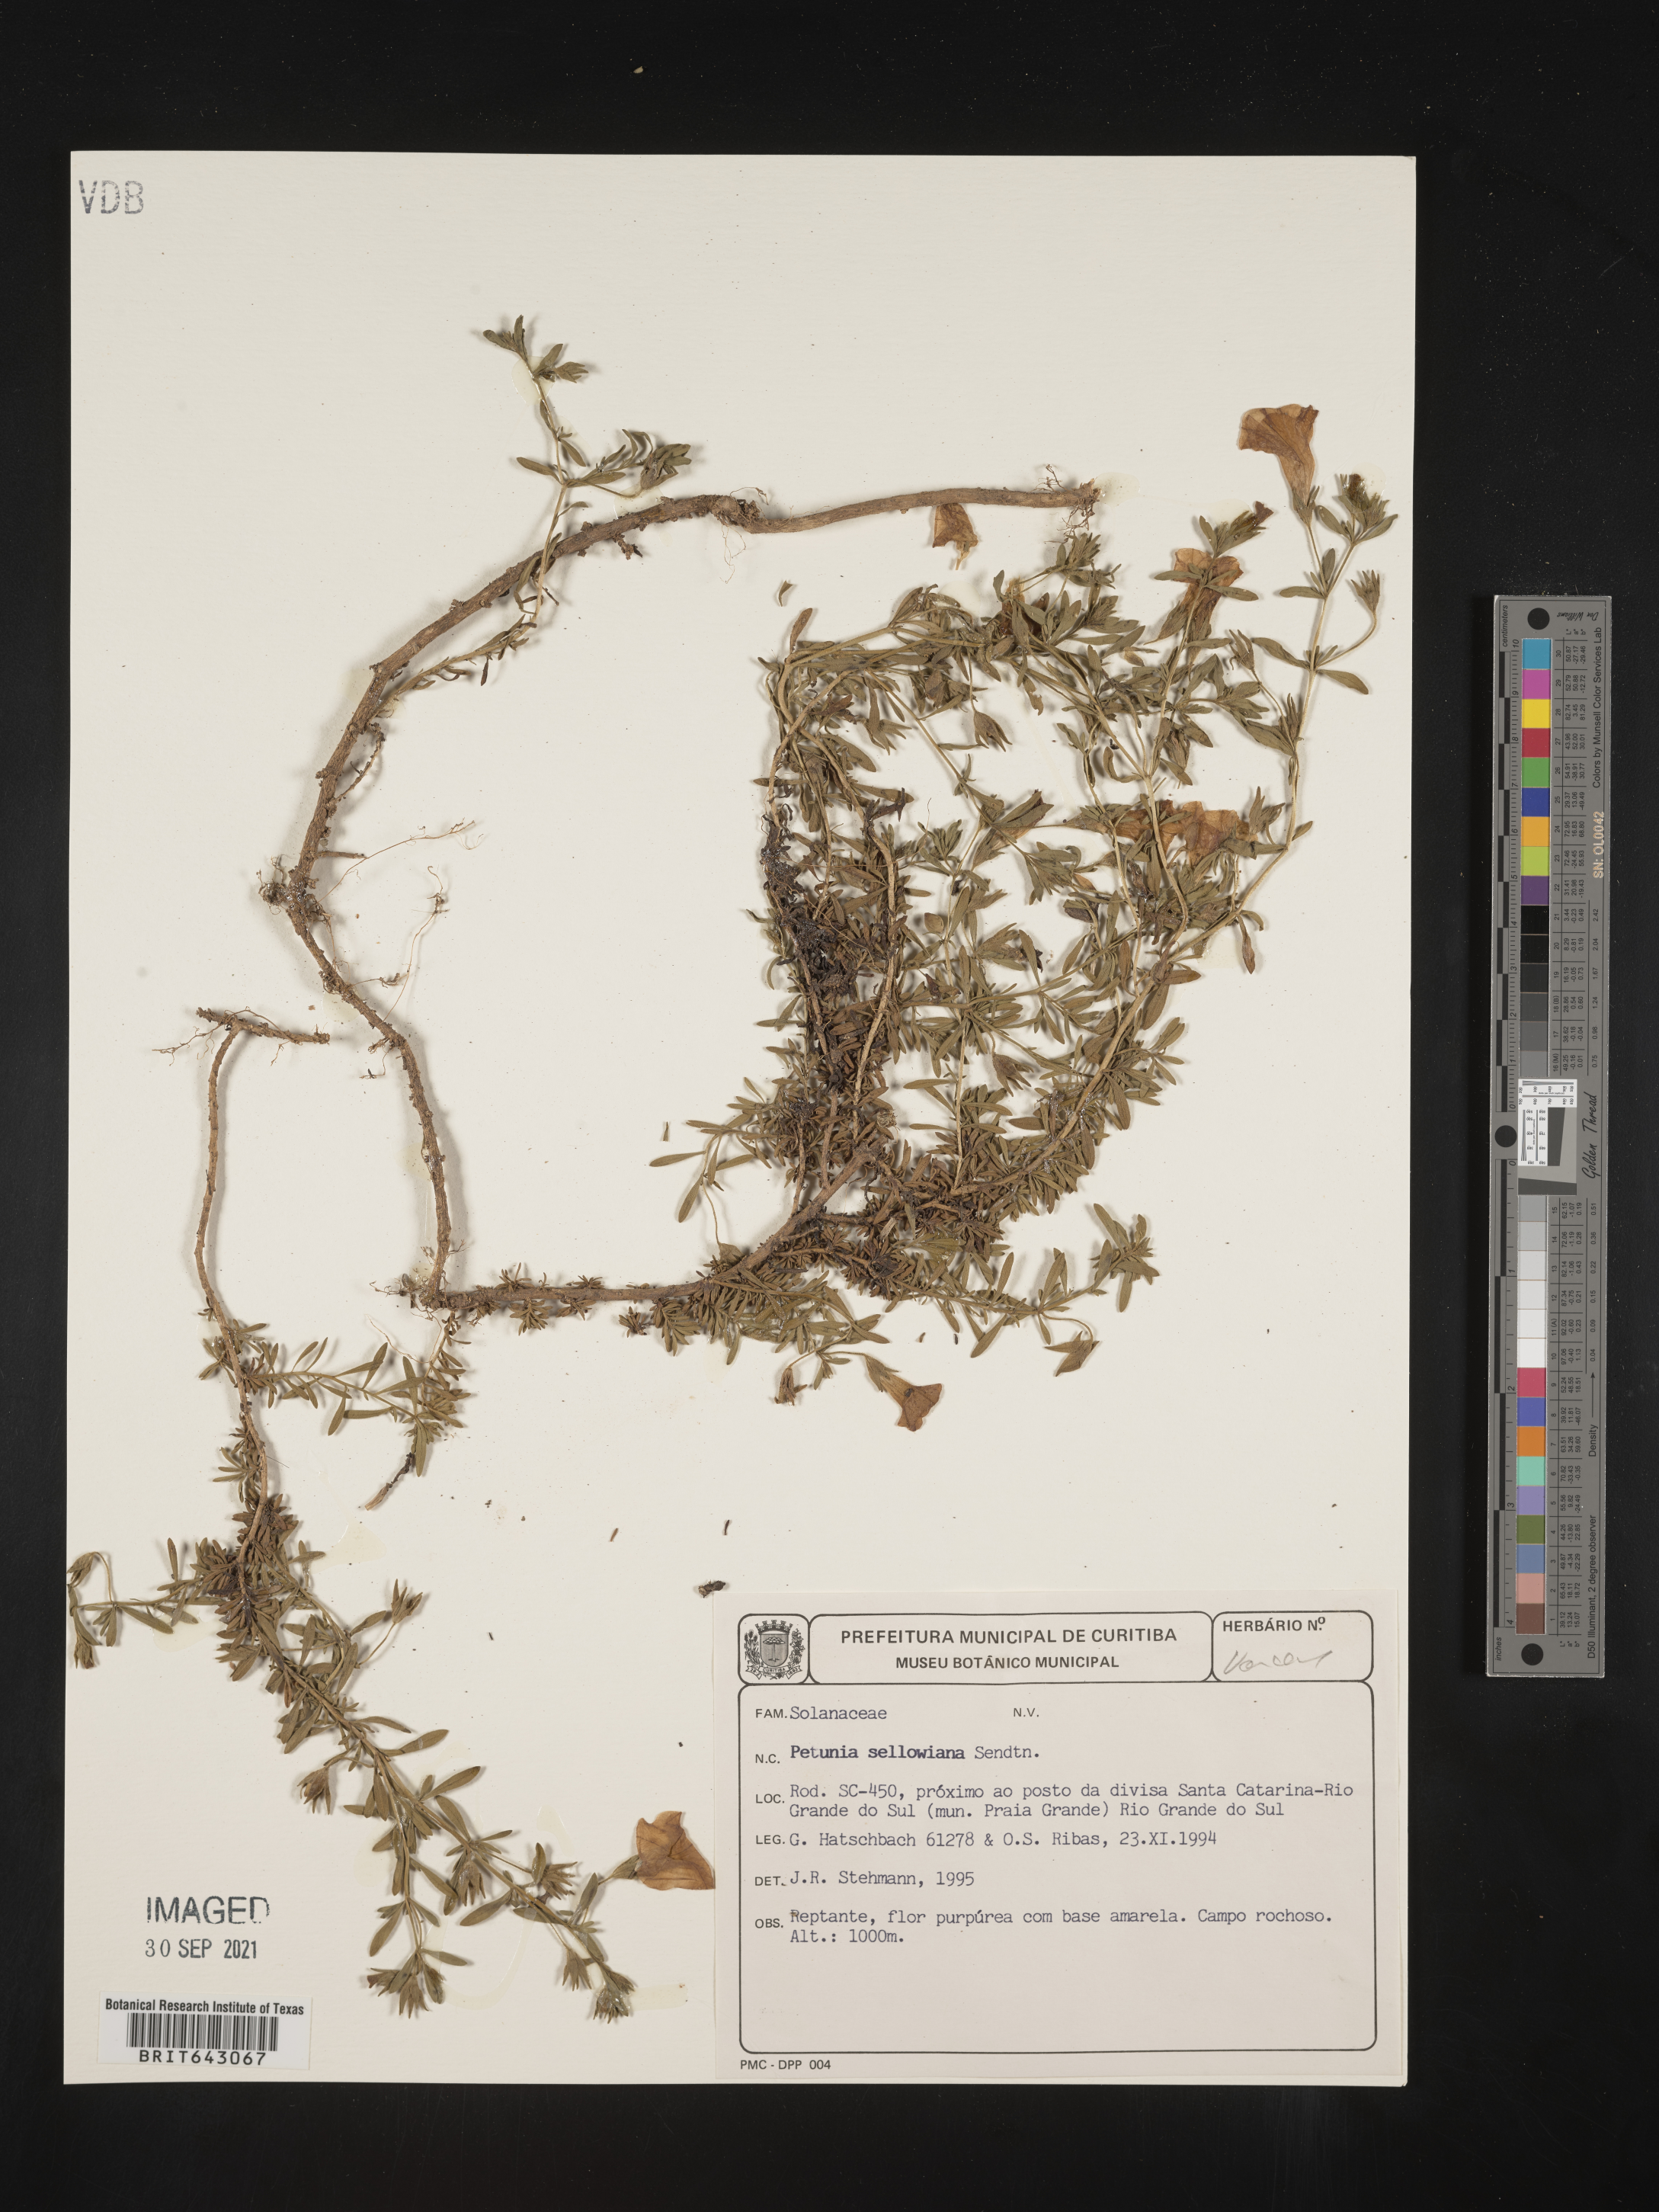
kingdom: Plantae
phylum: Tracheophyta
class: Magnoliopsida
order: Solanales
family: Solanaceae
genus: Petunia
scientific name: Petunia
